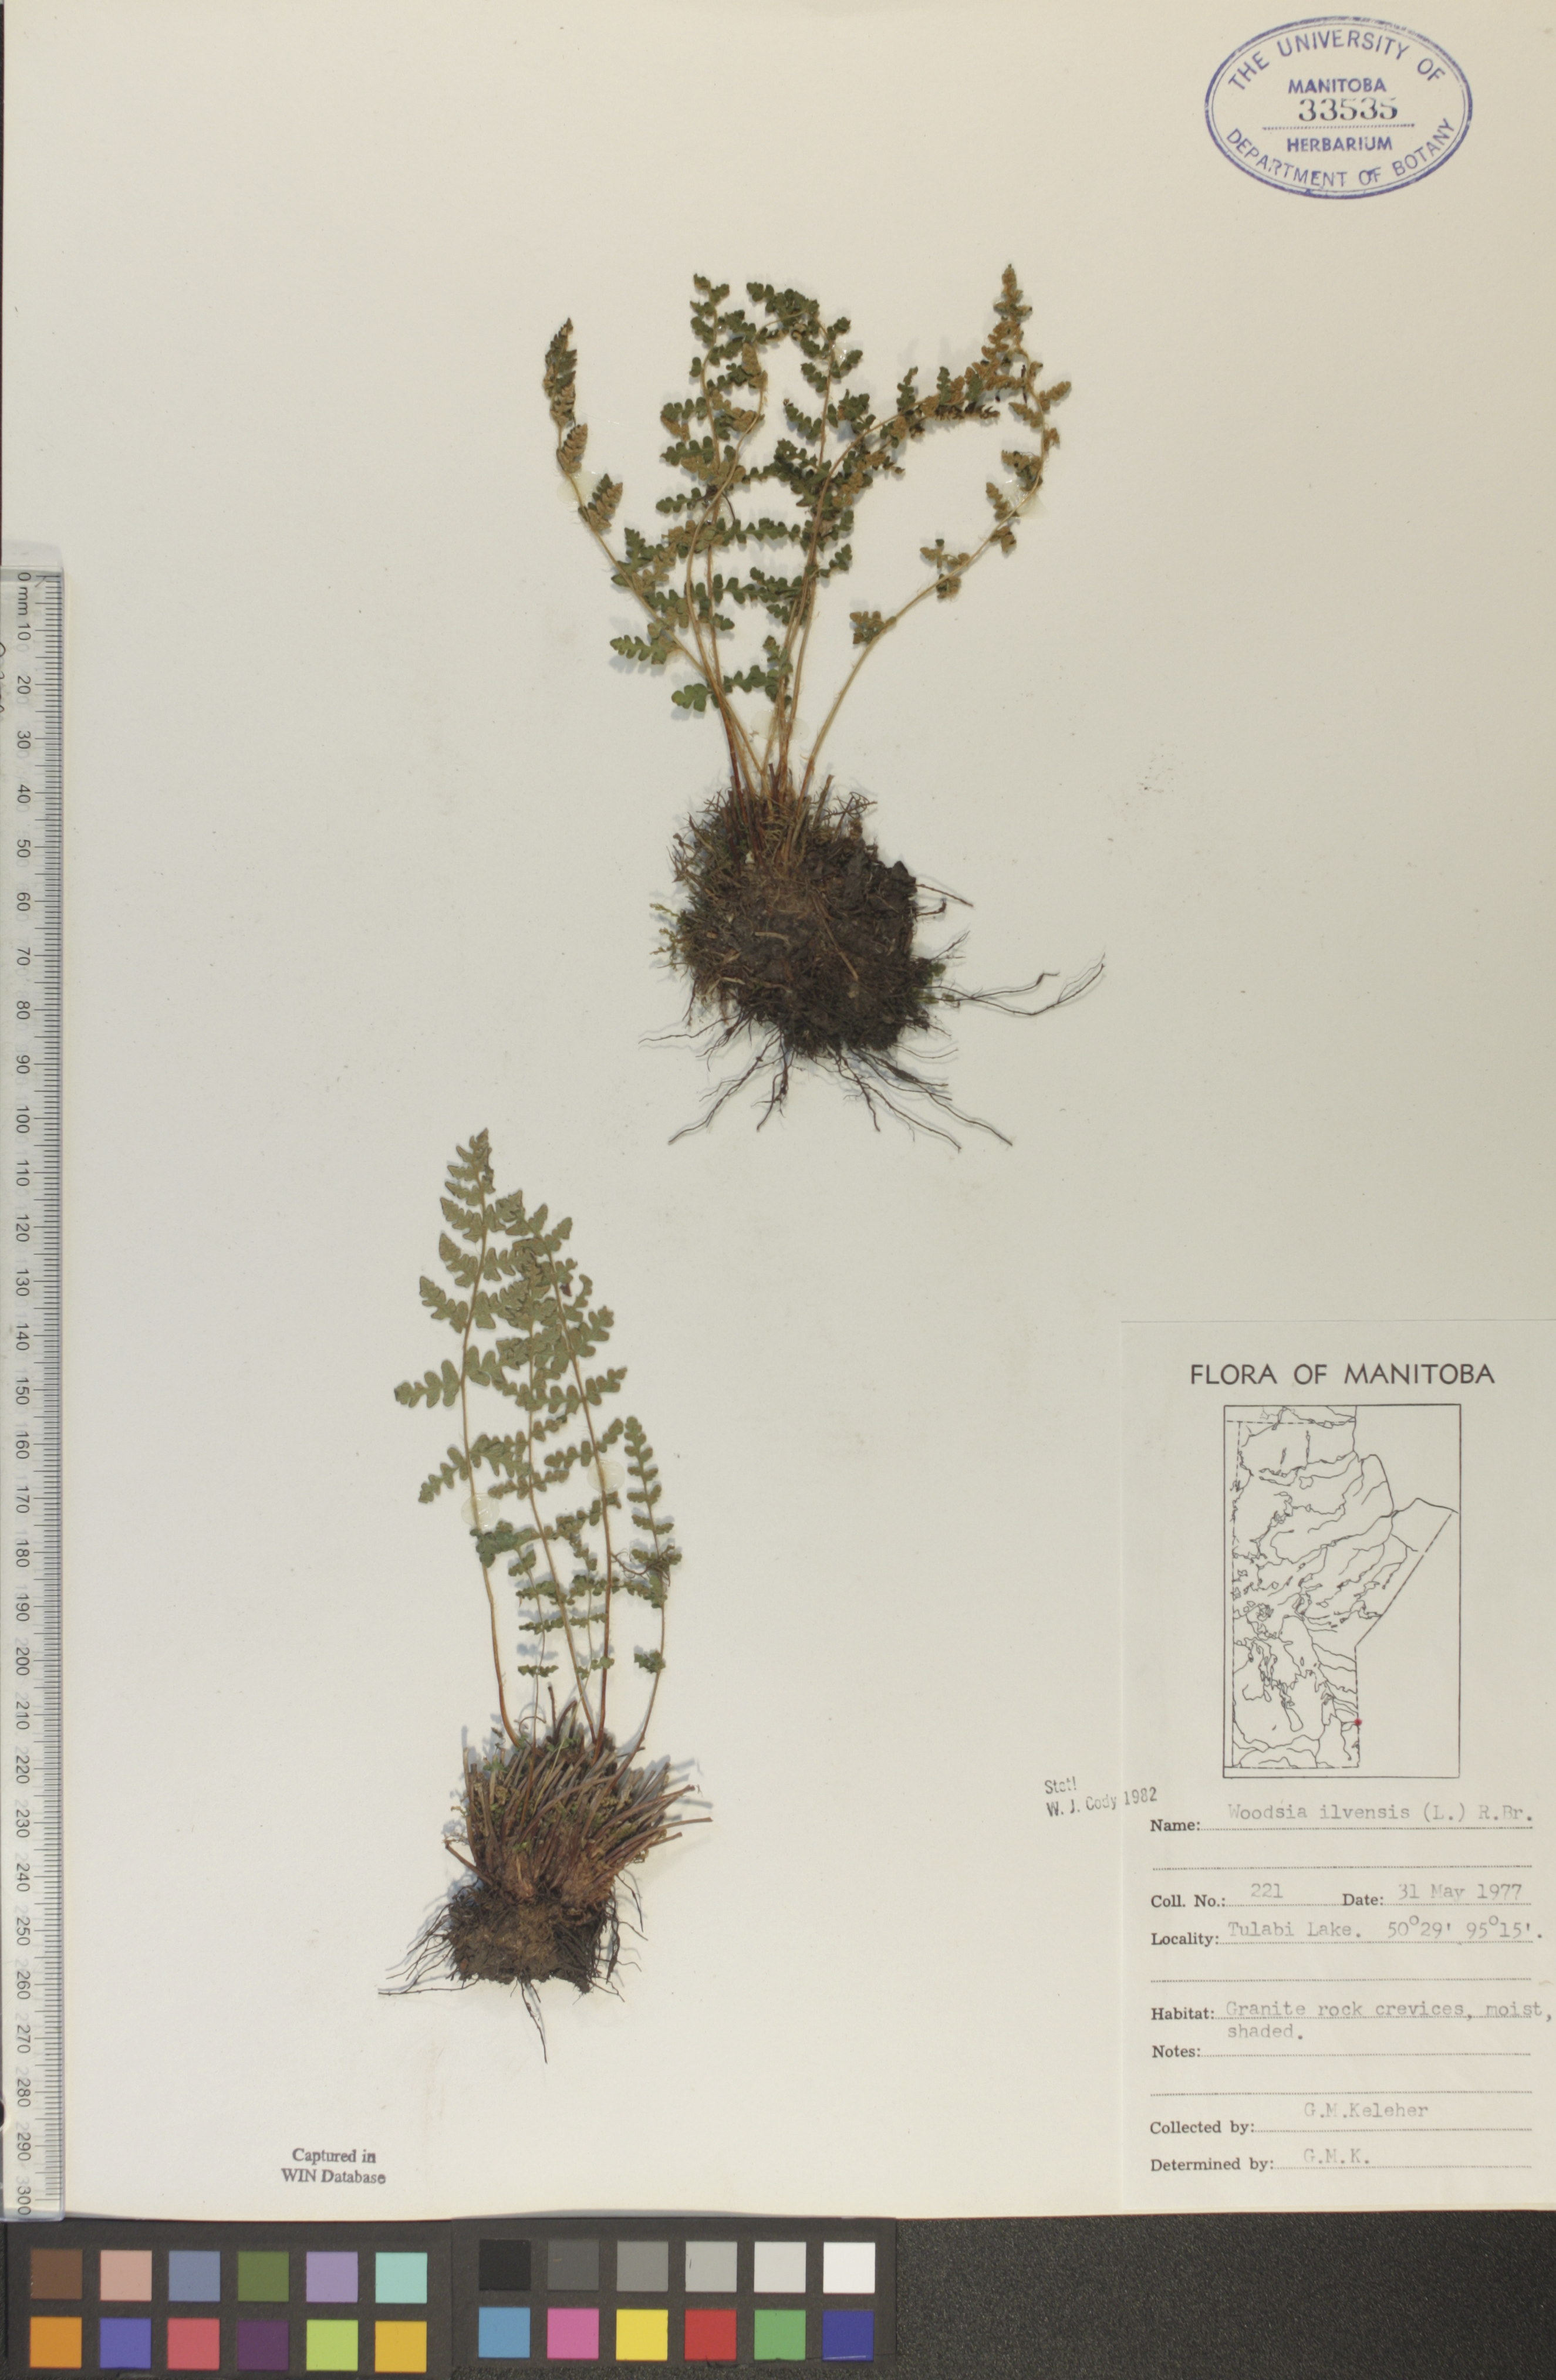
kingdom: Plantae
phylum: Tracheophyta
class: Polypodiopsida
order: Polypodiales
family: Woodsiaceae
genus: Woodsia
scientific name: Woodsia ilvensis
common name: Fragrant woodsia
